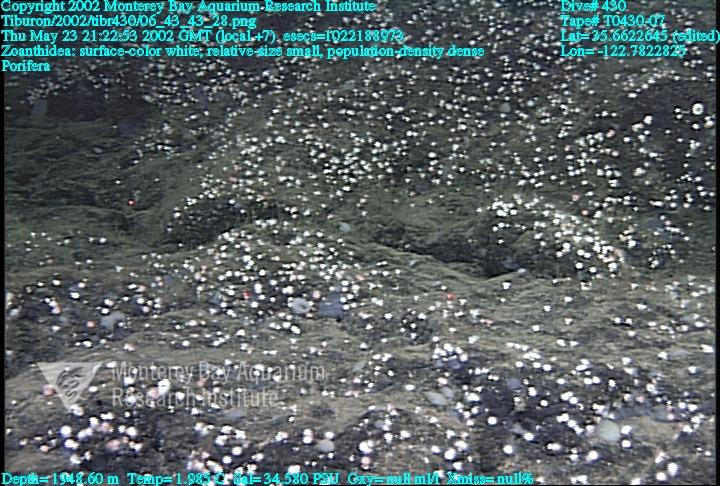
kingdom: Animalia
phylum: Porifera
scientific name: Porifera
